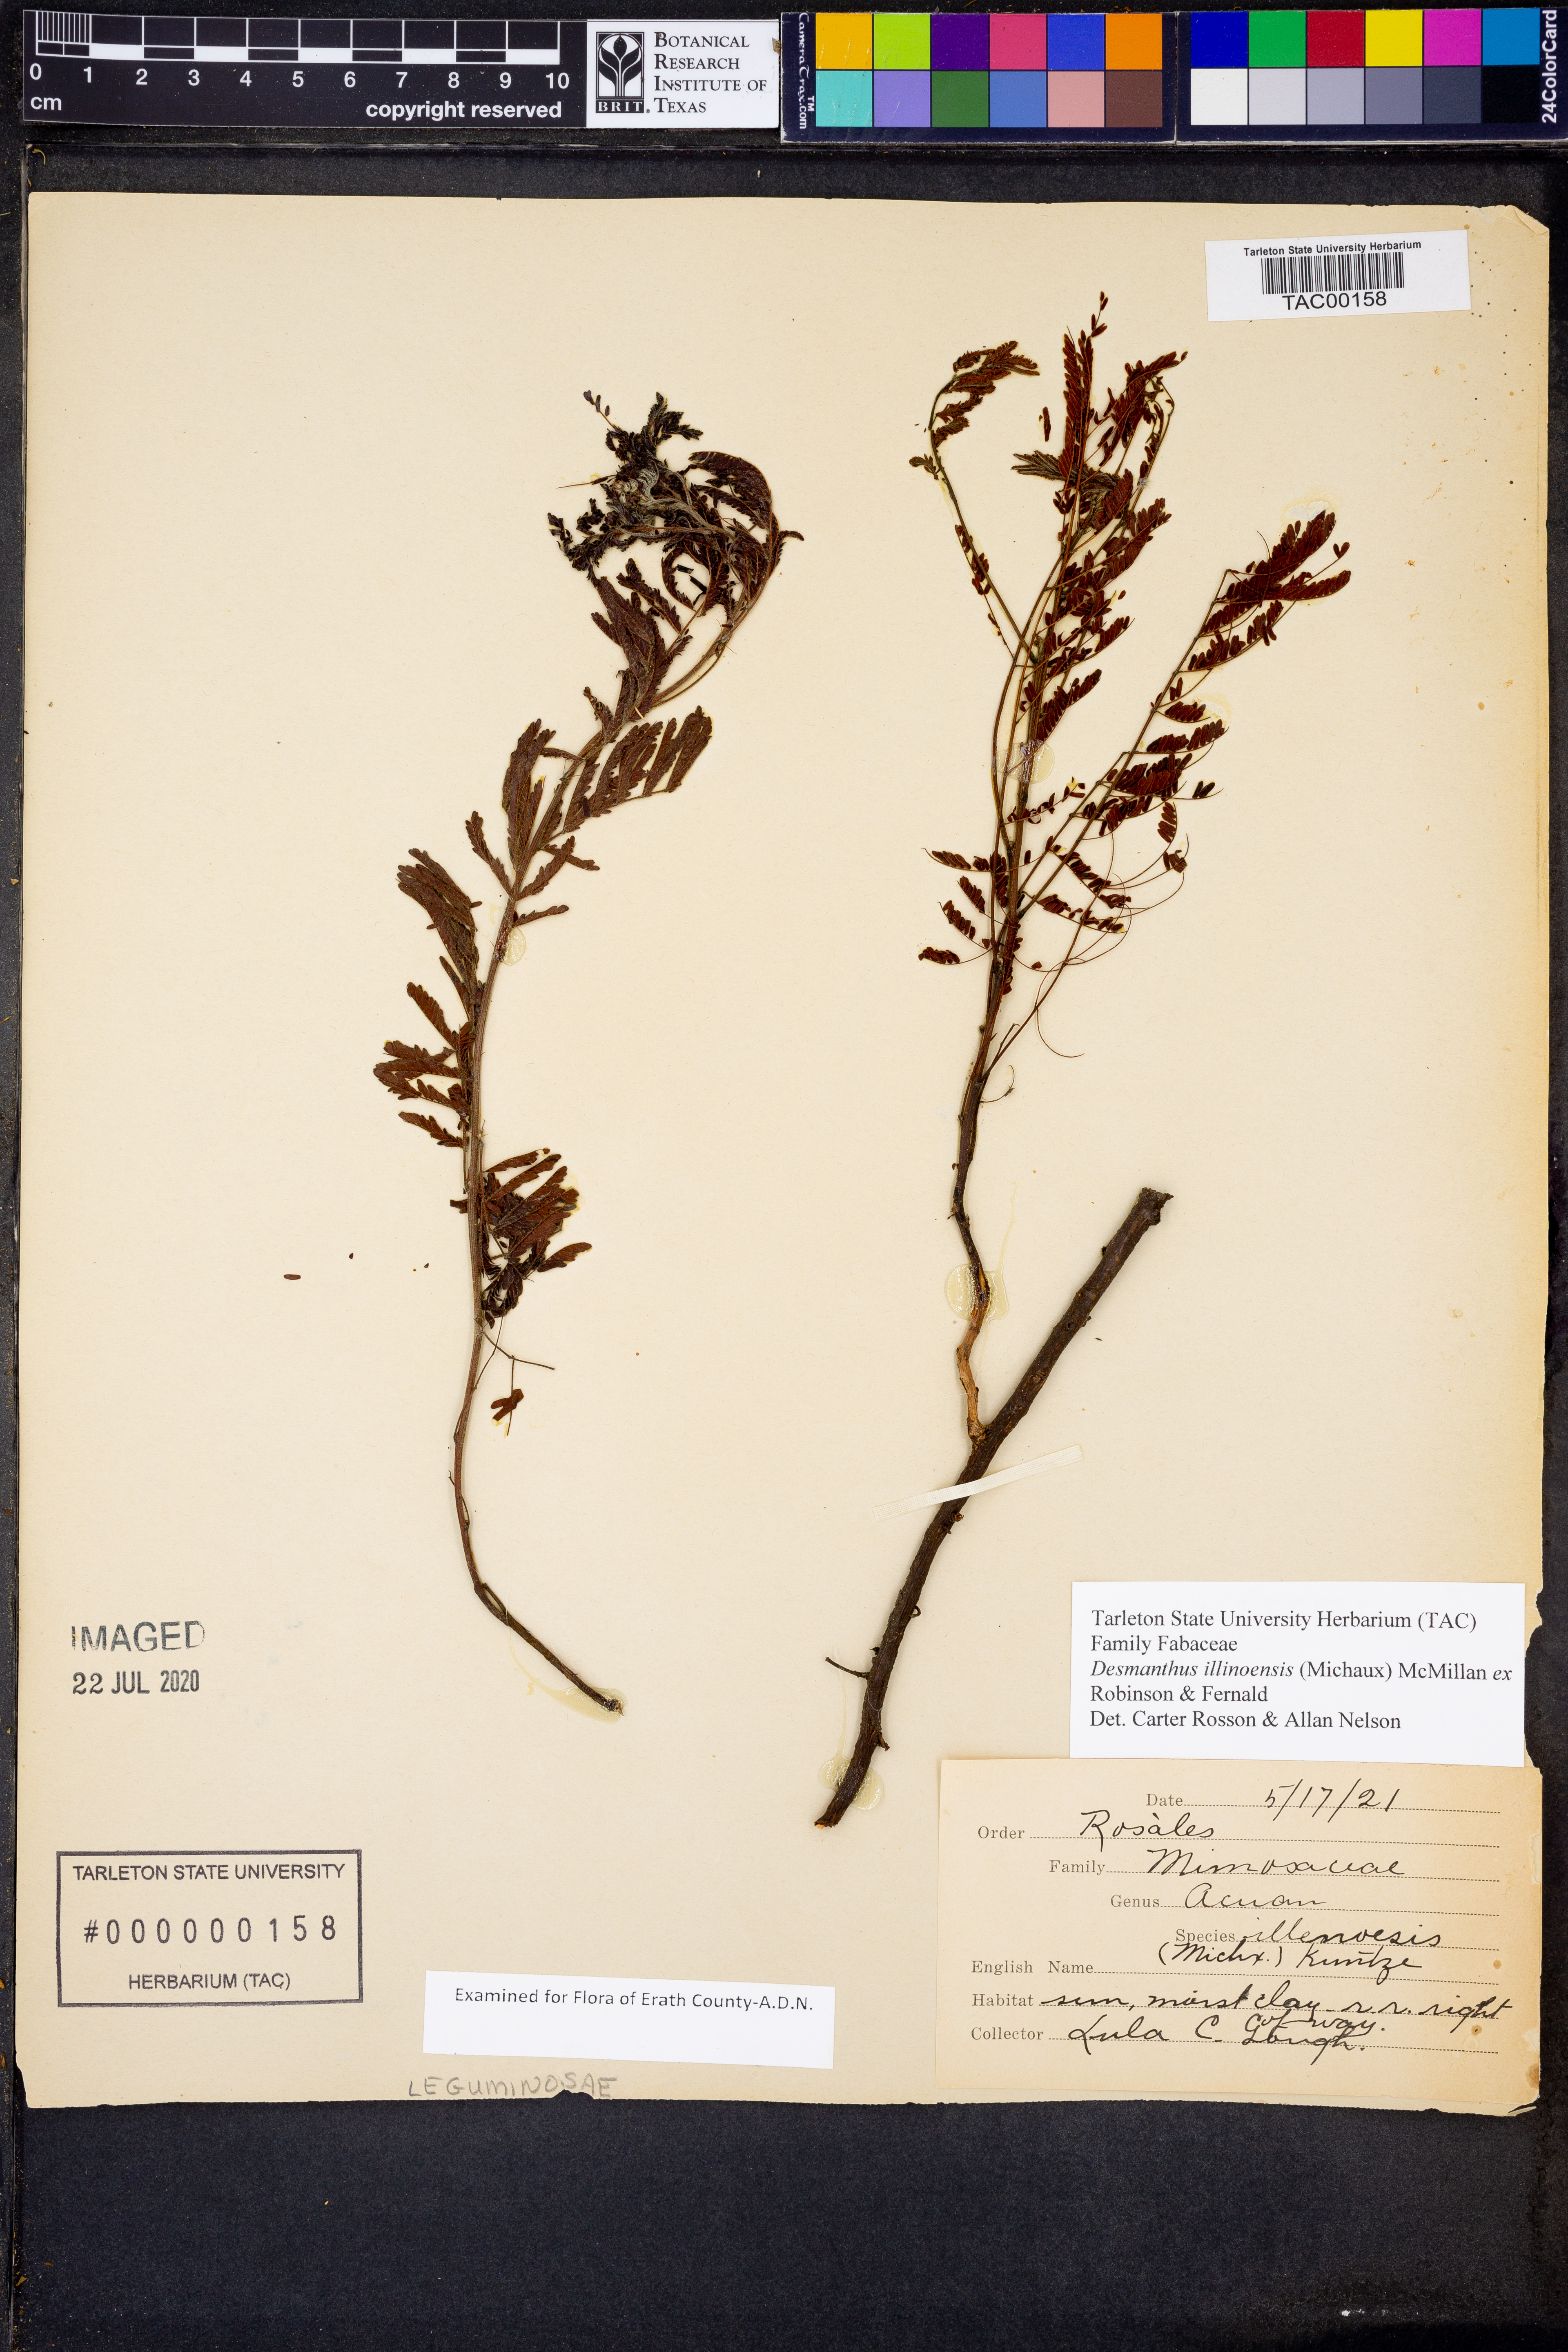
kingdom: Plantae
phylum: Tracheophyta
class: Magnoliopsida
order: Fabales
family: Fabaceae
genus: Desmanthus
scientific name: Desmanthus illinoensis
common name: Illinois bundle-flower
